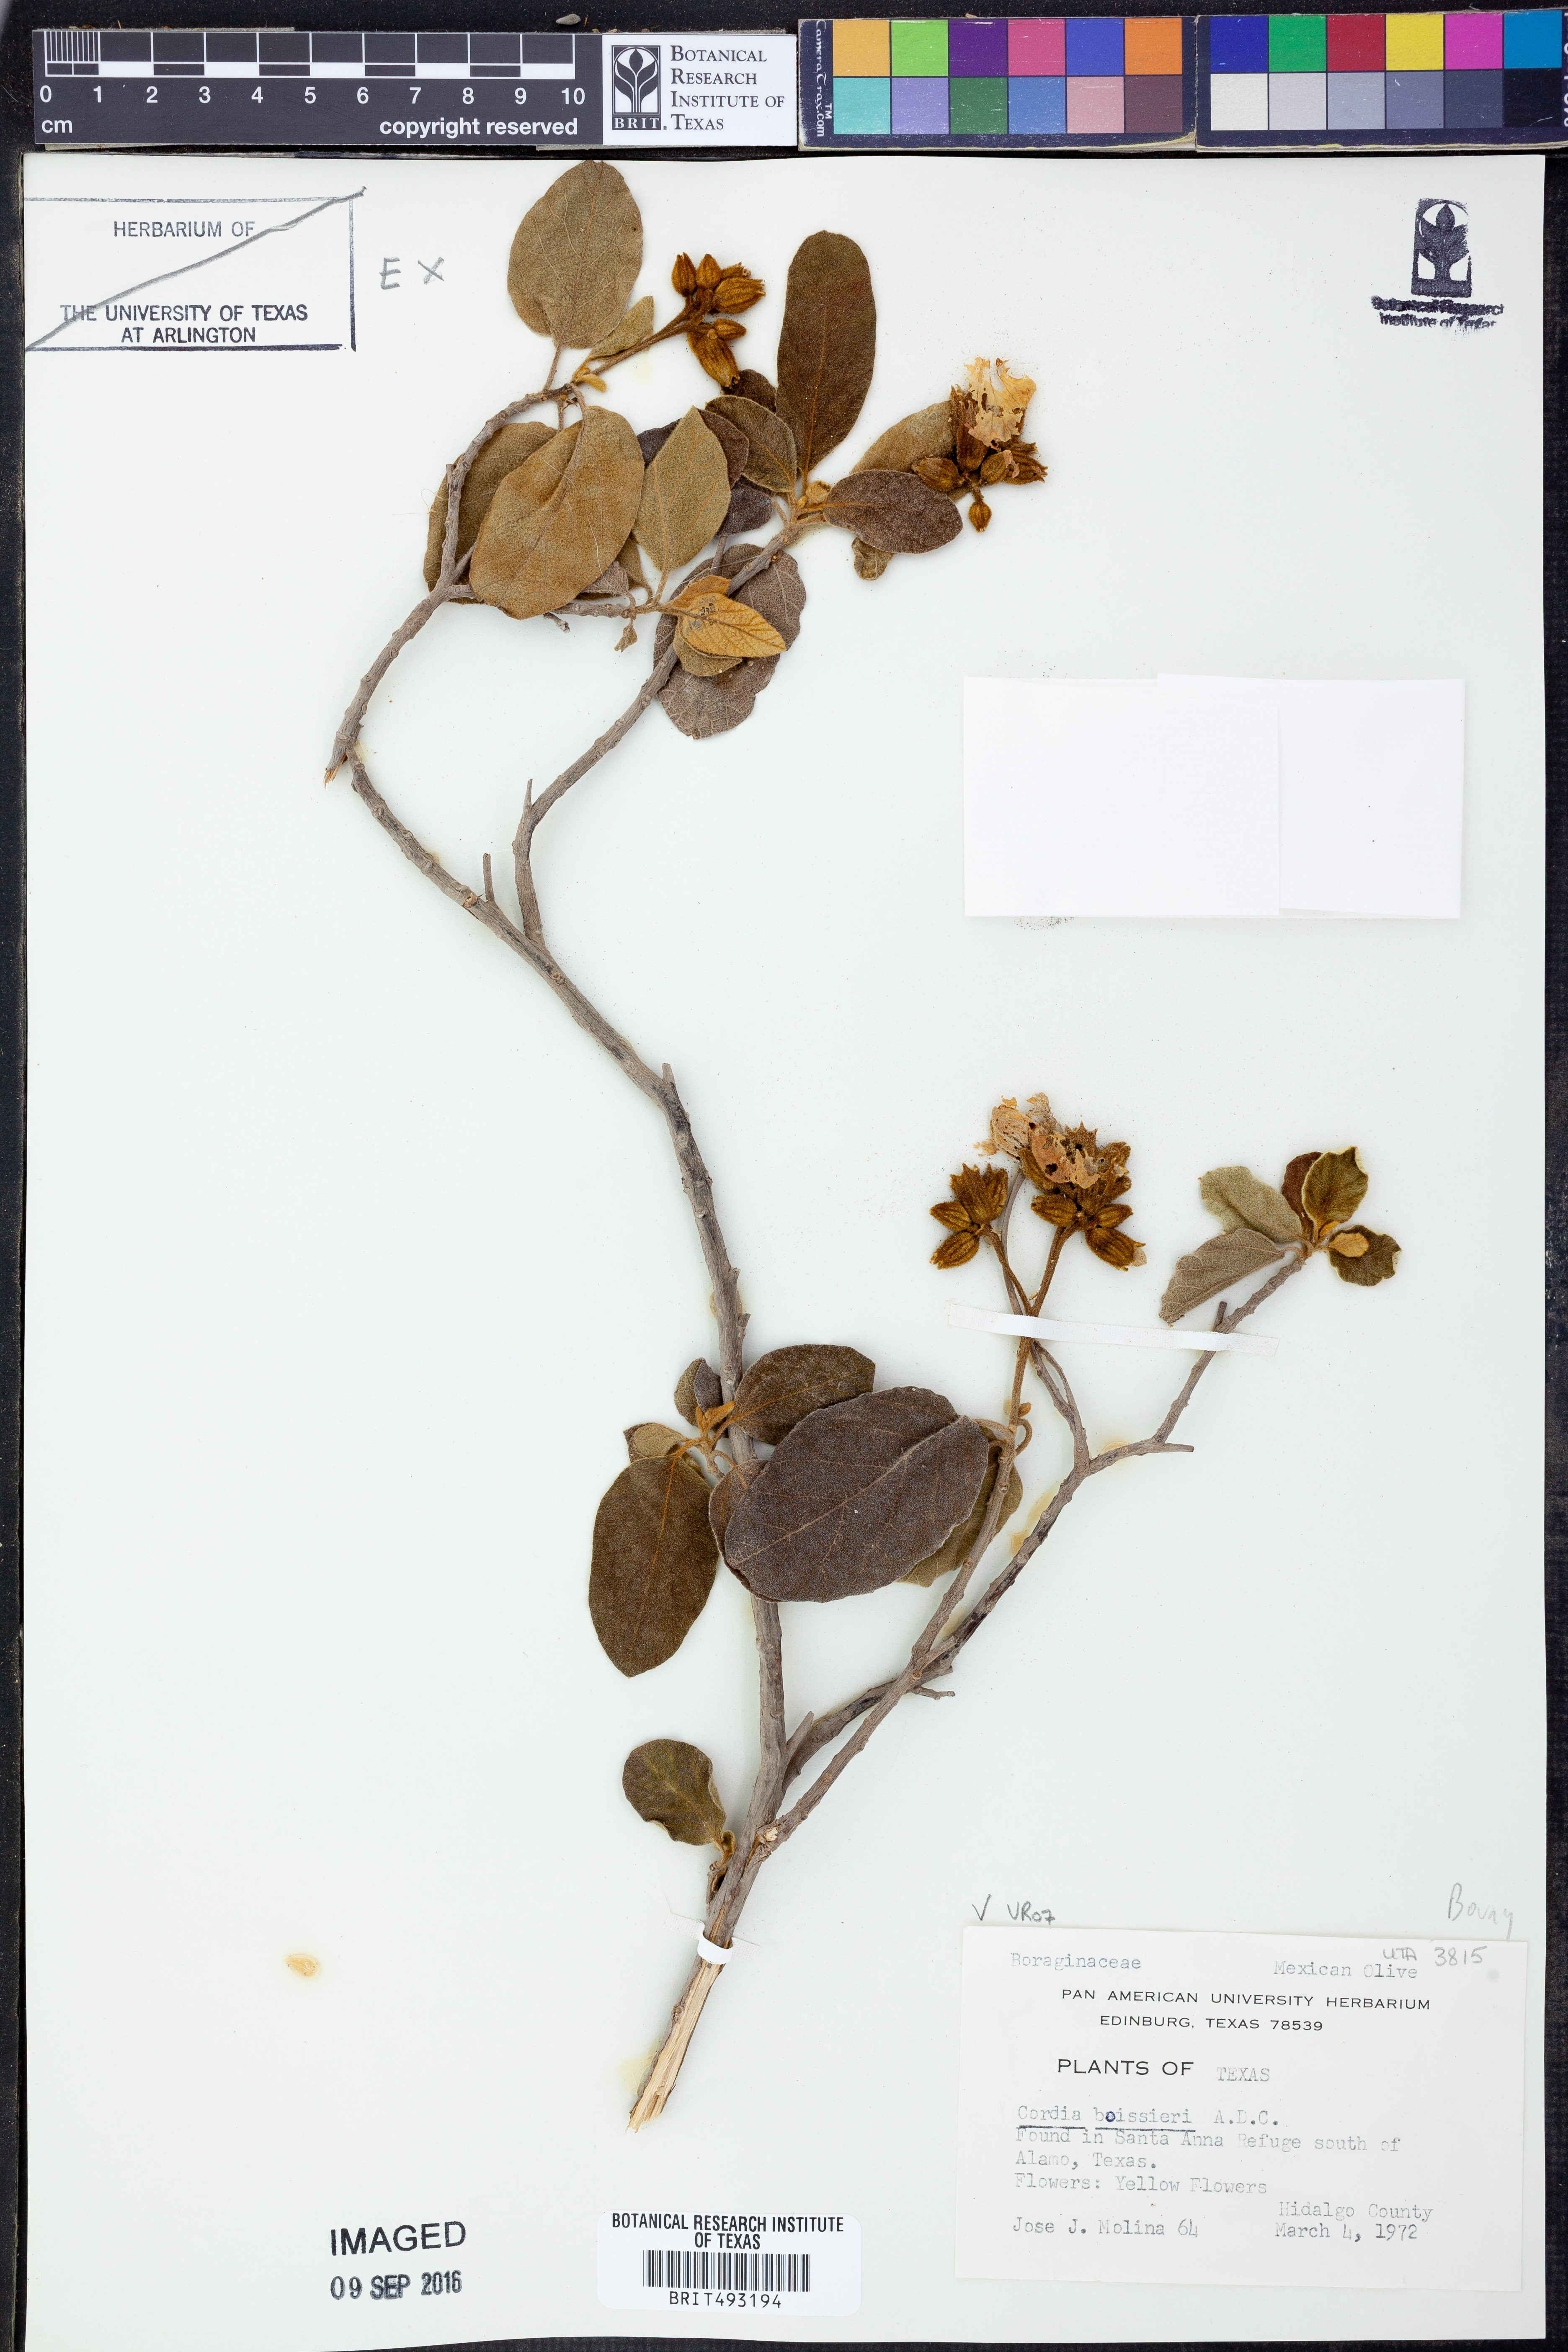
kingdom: Plantae
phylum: Tracheophyta
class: Magnoliopsida
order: Boraginales
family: Cordiaceae
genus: Cordia
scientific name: Cordia boissieri
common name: Mexican-olive
